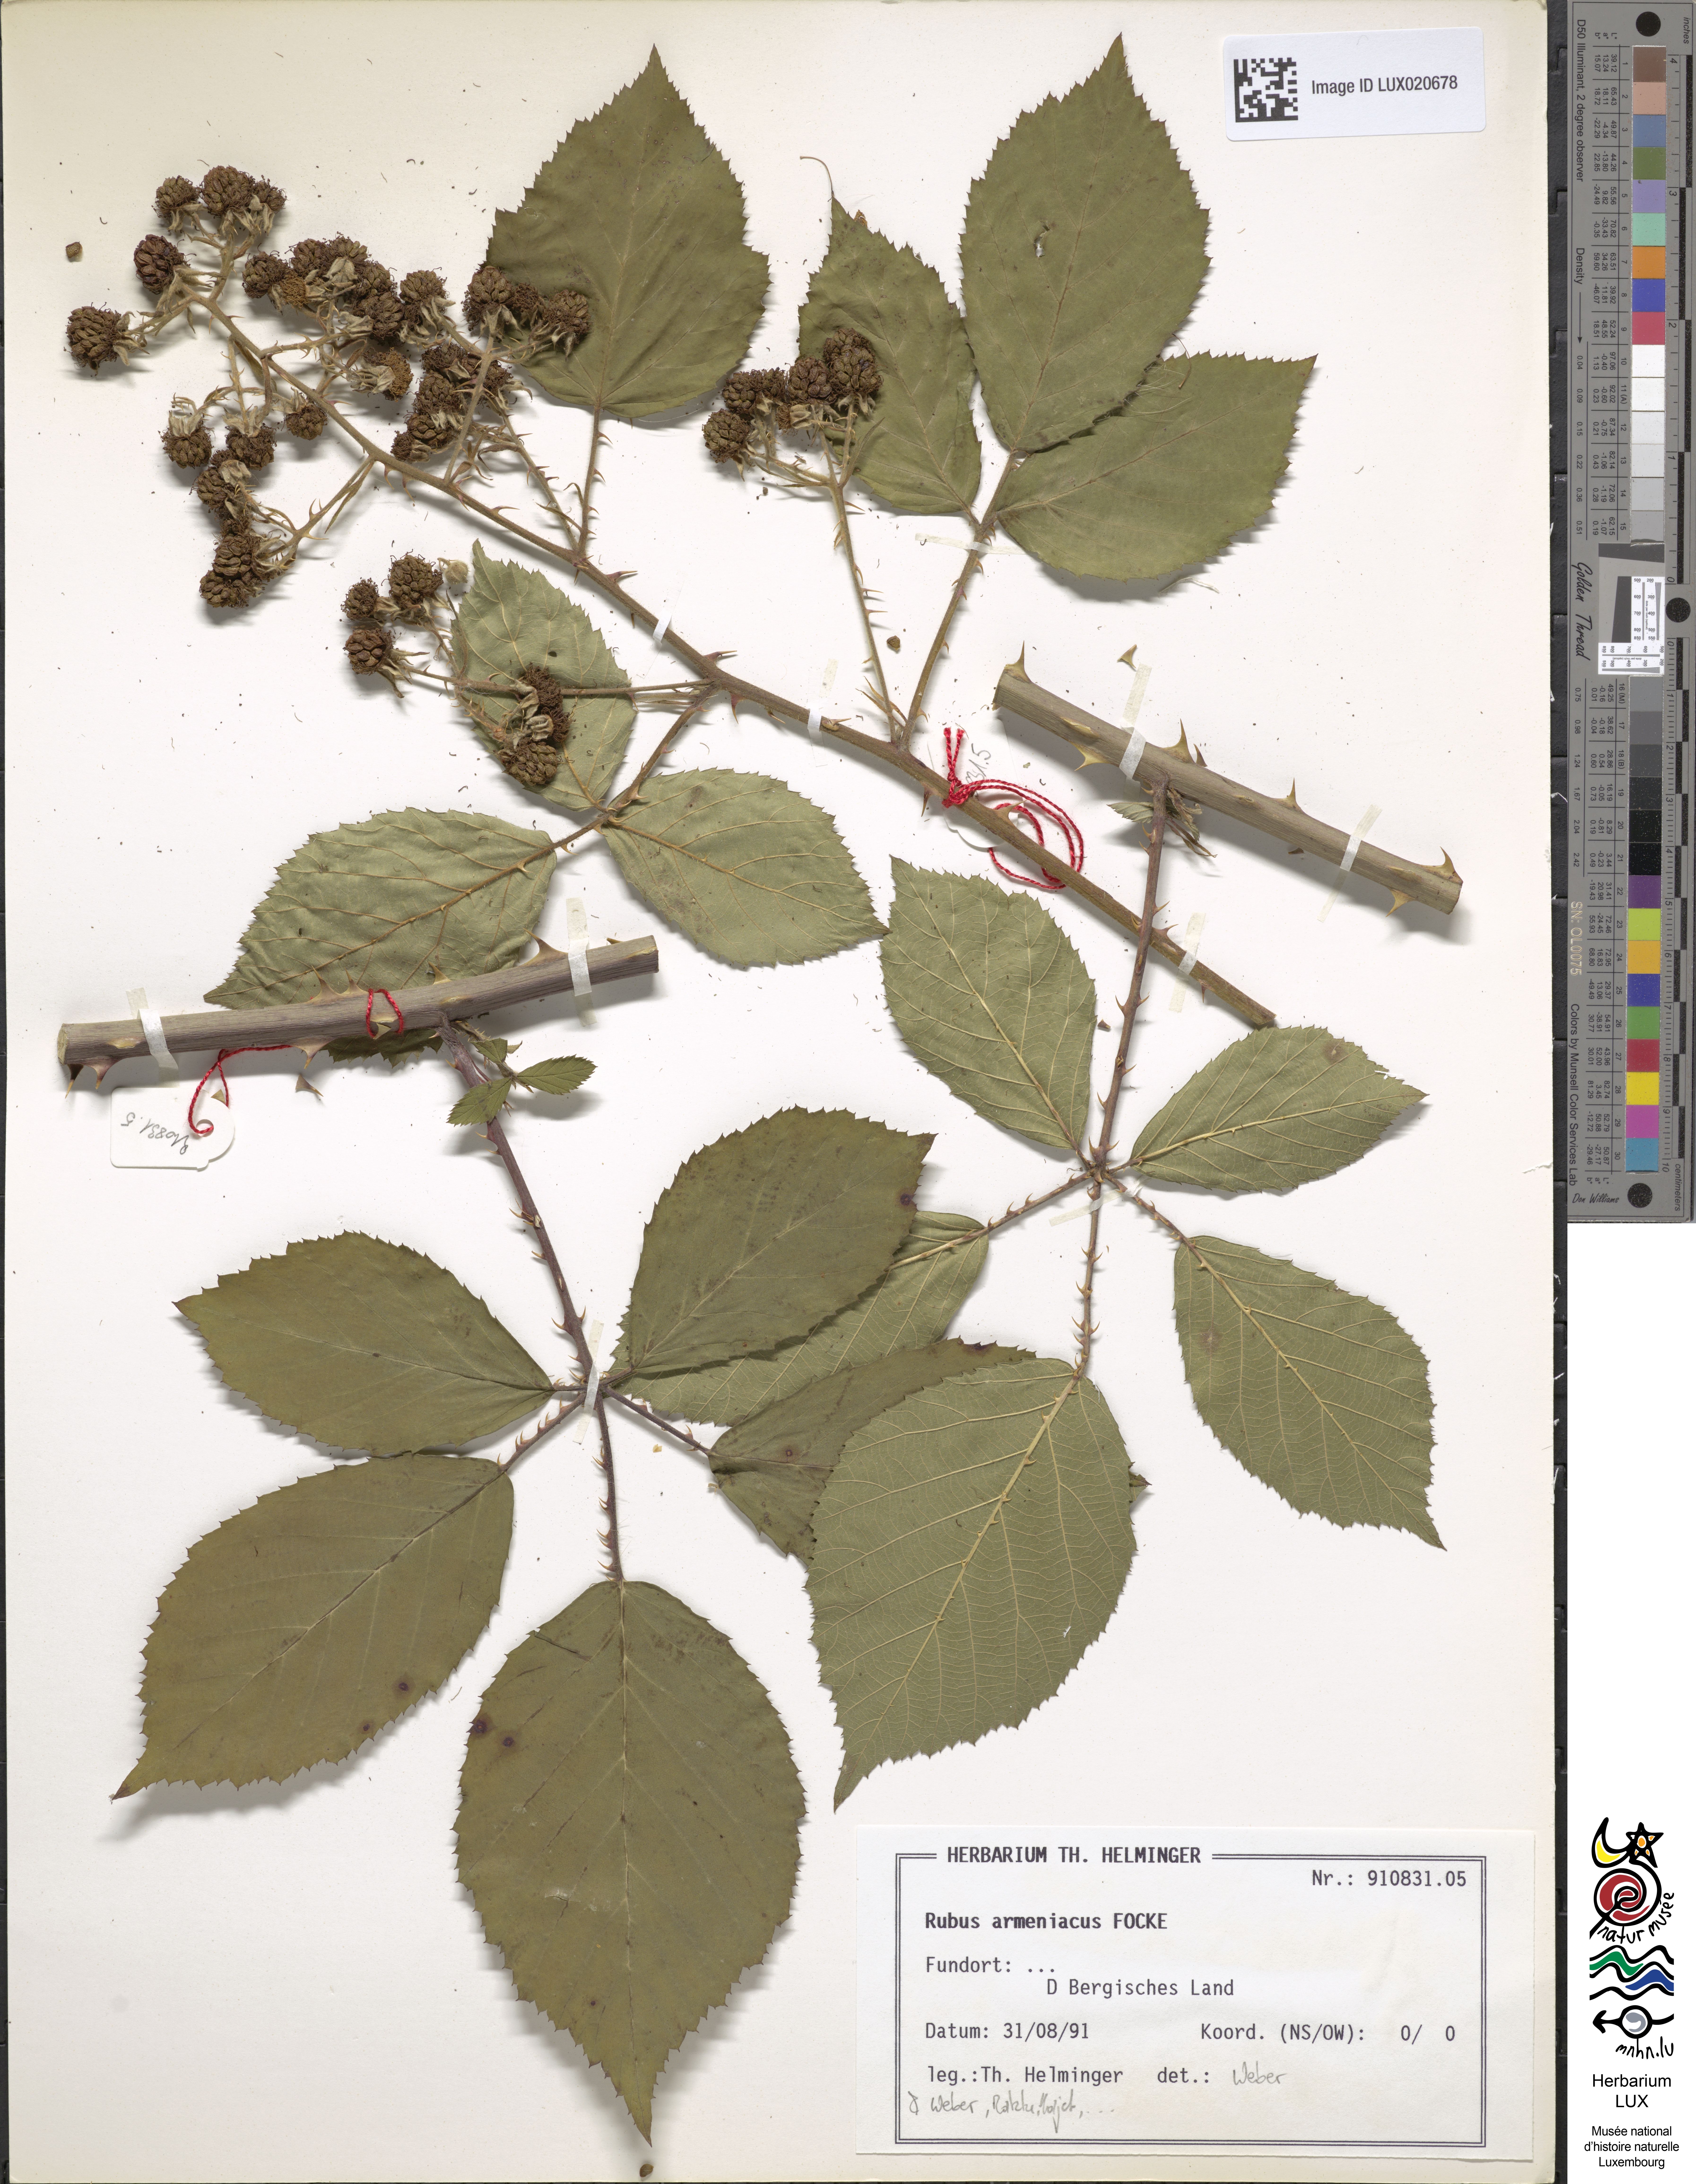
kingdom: Plantae
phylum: Tracheophyta
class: Magnoliopsida
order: Rosales
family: Rosaceae
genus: Rubus
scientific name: Rubus armeniacus
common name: Himalayan blackberry
